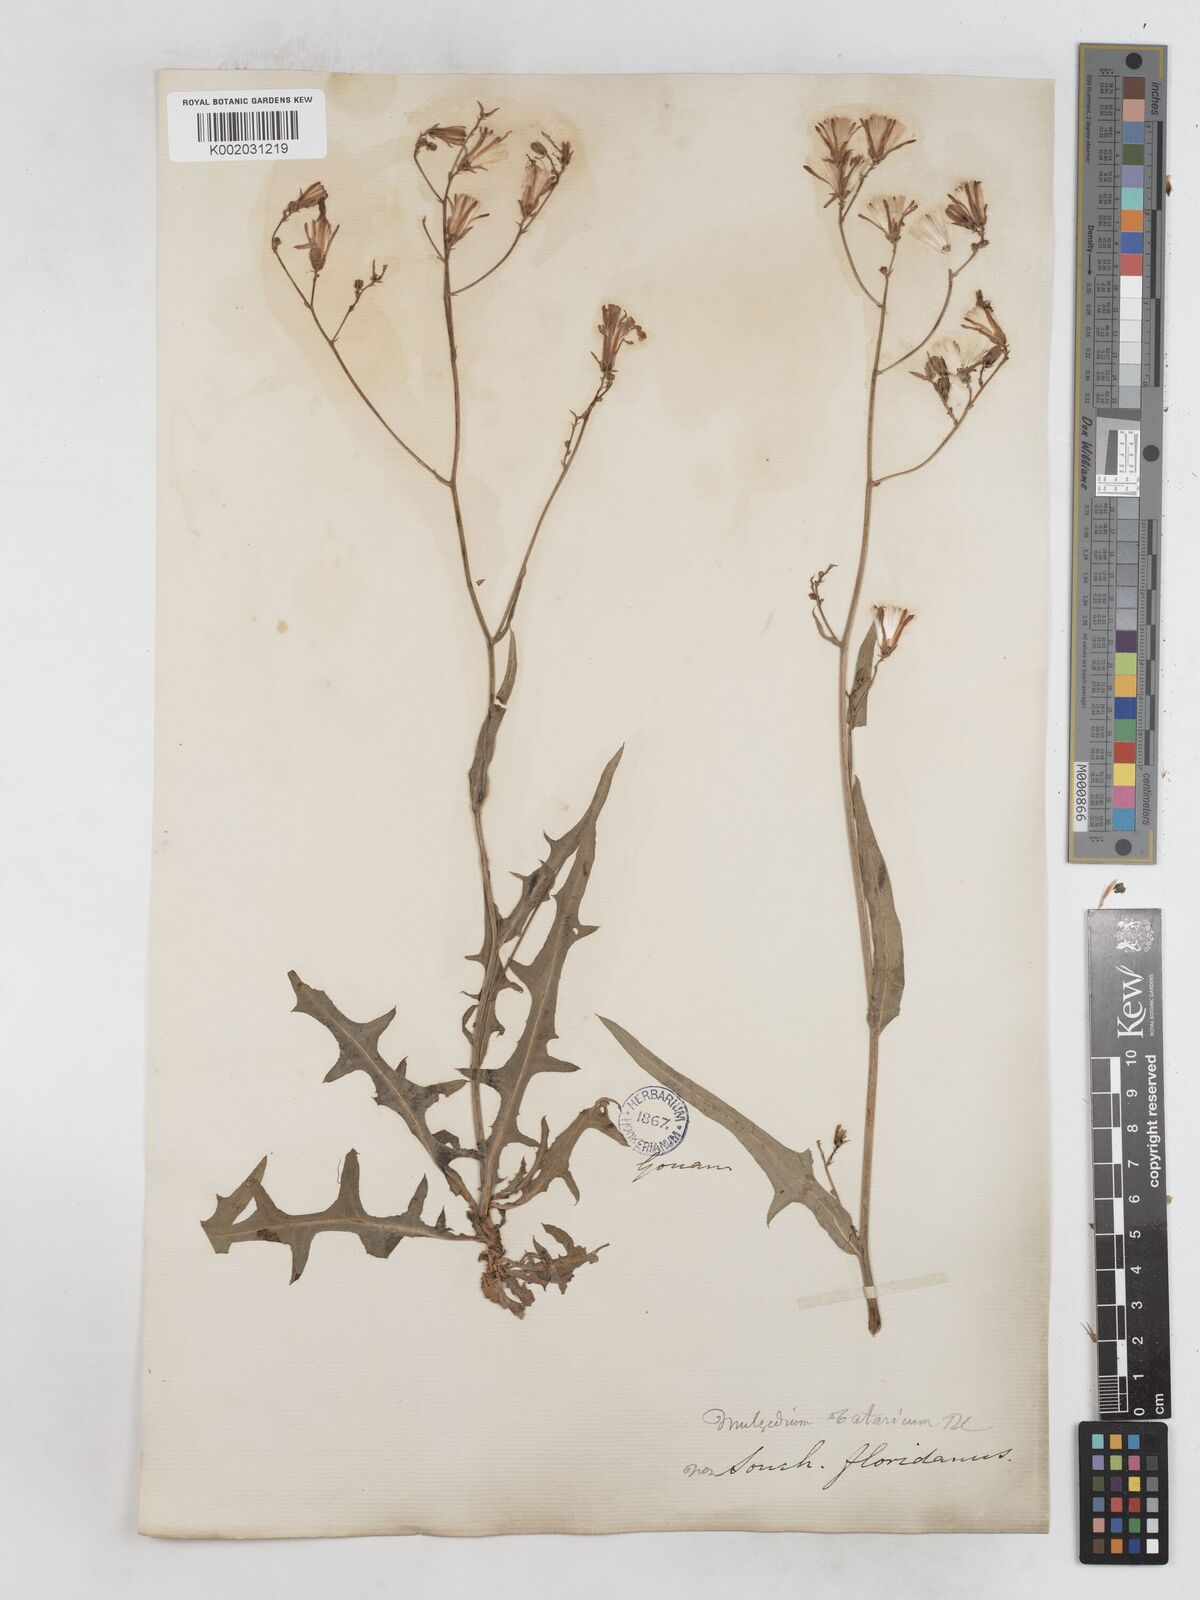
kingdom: Plantae
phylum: Tracheophyta
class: Magnoliopsida
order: Asterales
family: Asteraceae
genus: Lactuca
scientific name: Lactuca tatarica
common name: Blue lettuce
